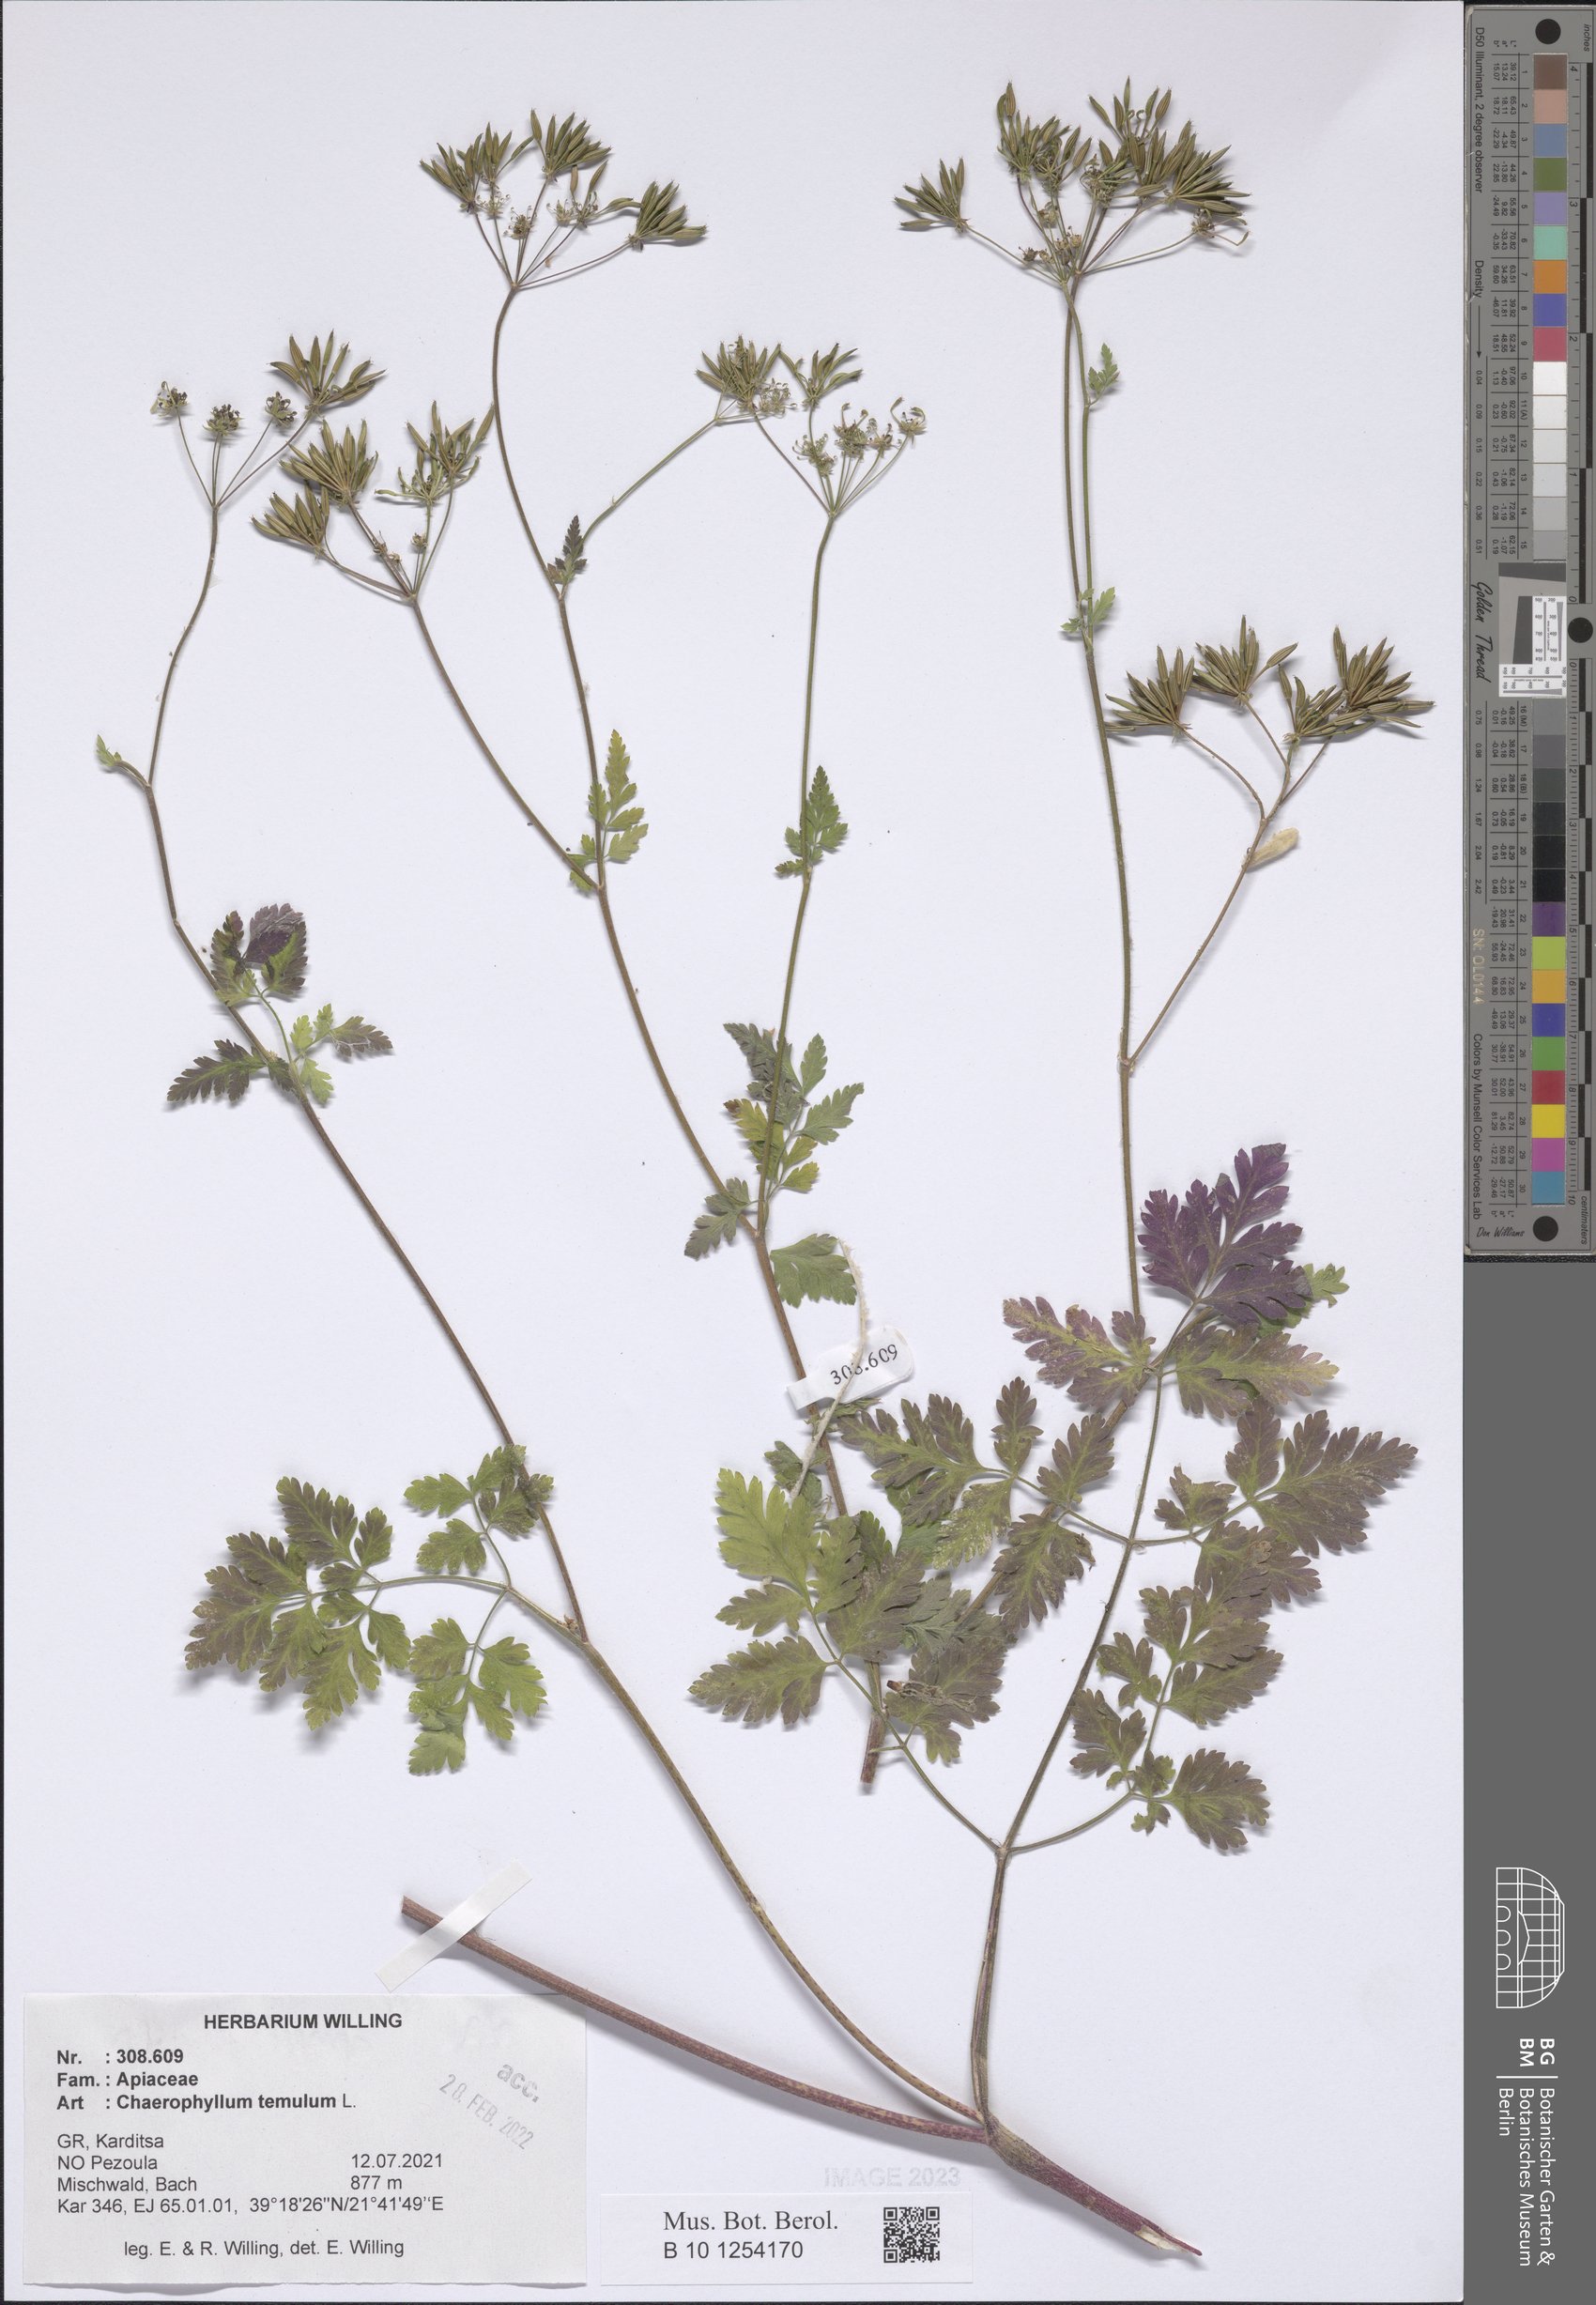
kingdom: Plantae
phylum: Tracheophyta
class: Magnoliopsida
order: Apiales
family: Apiaceae
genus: Chaerophyllum
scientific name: Chaerophyllum temulum
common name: Rough chervil
